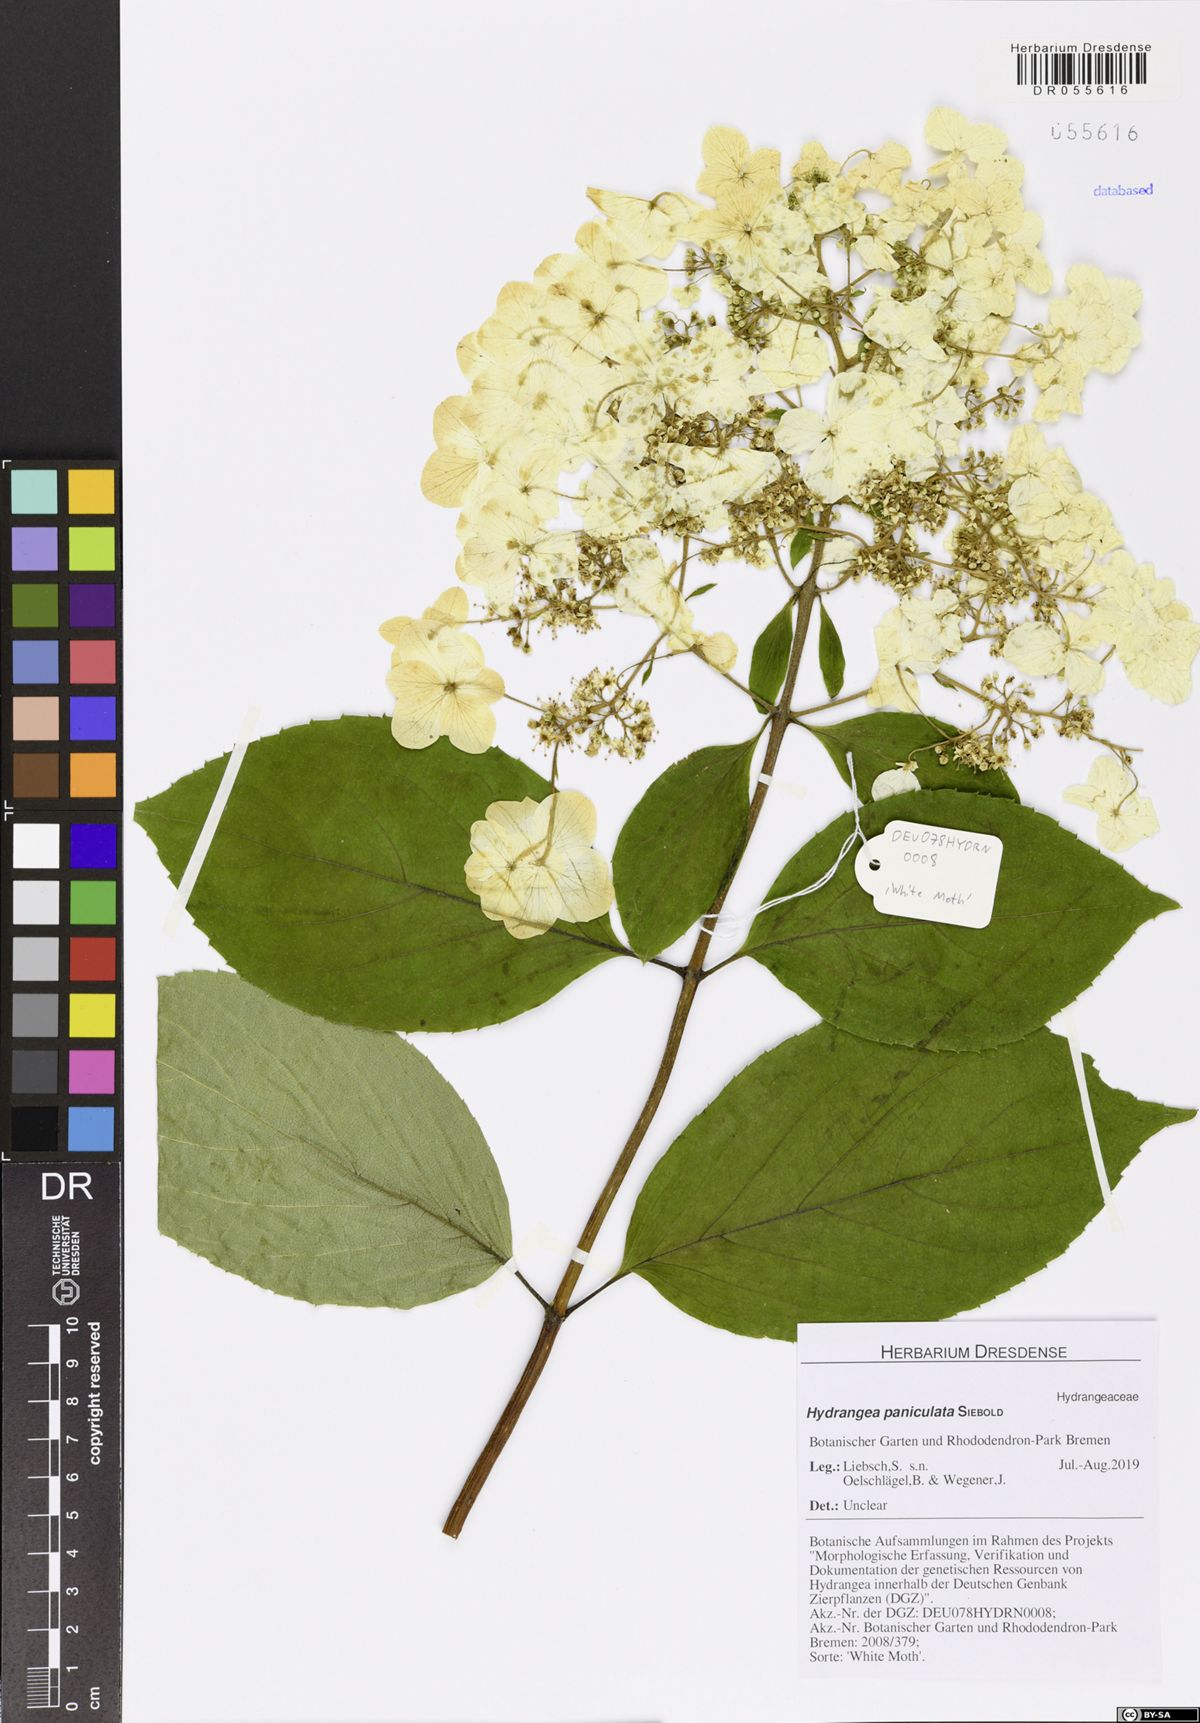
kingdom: Plantae
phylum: Tracheophyta
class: Magnoliopsida
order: Cornales
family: Hydrangeaceae
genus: Hydrangea
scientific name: Hydrangea paniculata
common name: Panicled hydrangea
